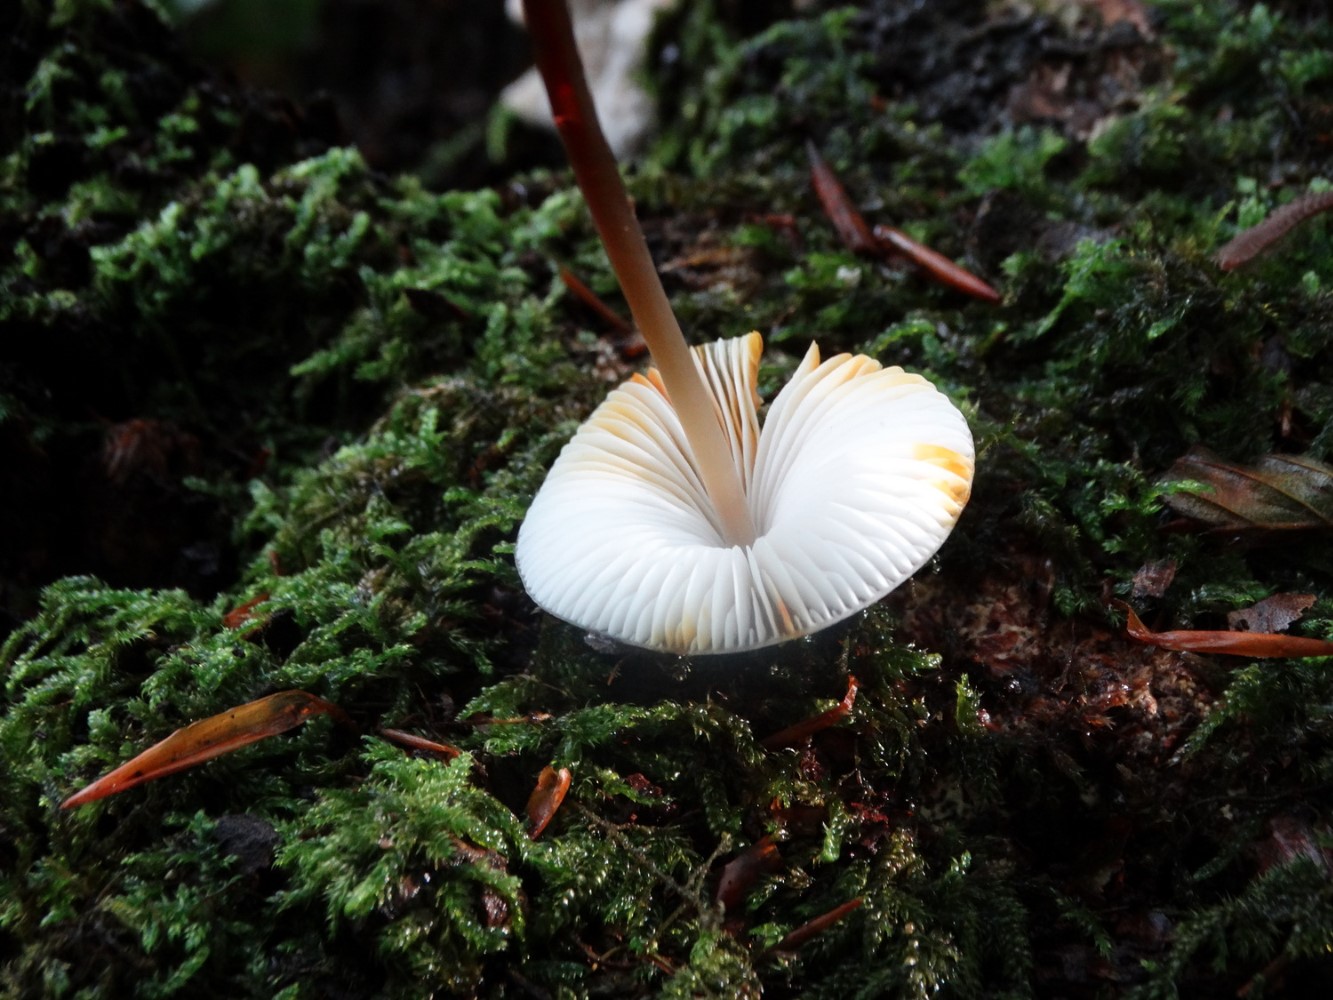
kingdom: Fungi
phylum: Basidiomycota
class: Agaricomycetes
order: Agaricales
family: Mycenaceae
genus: Mycena
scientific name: Mycena crocata
